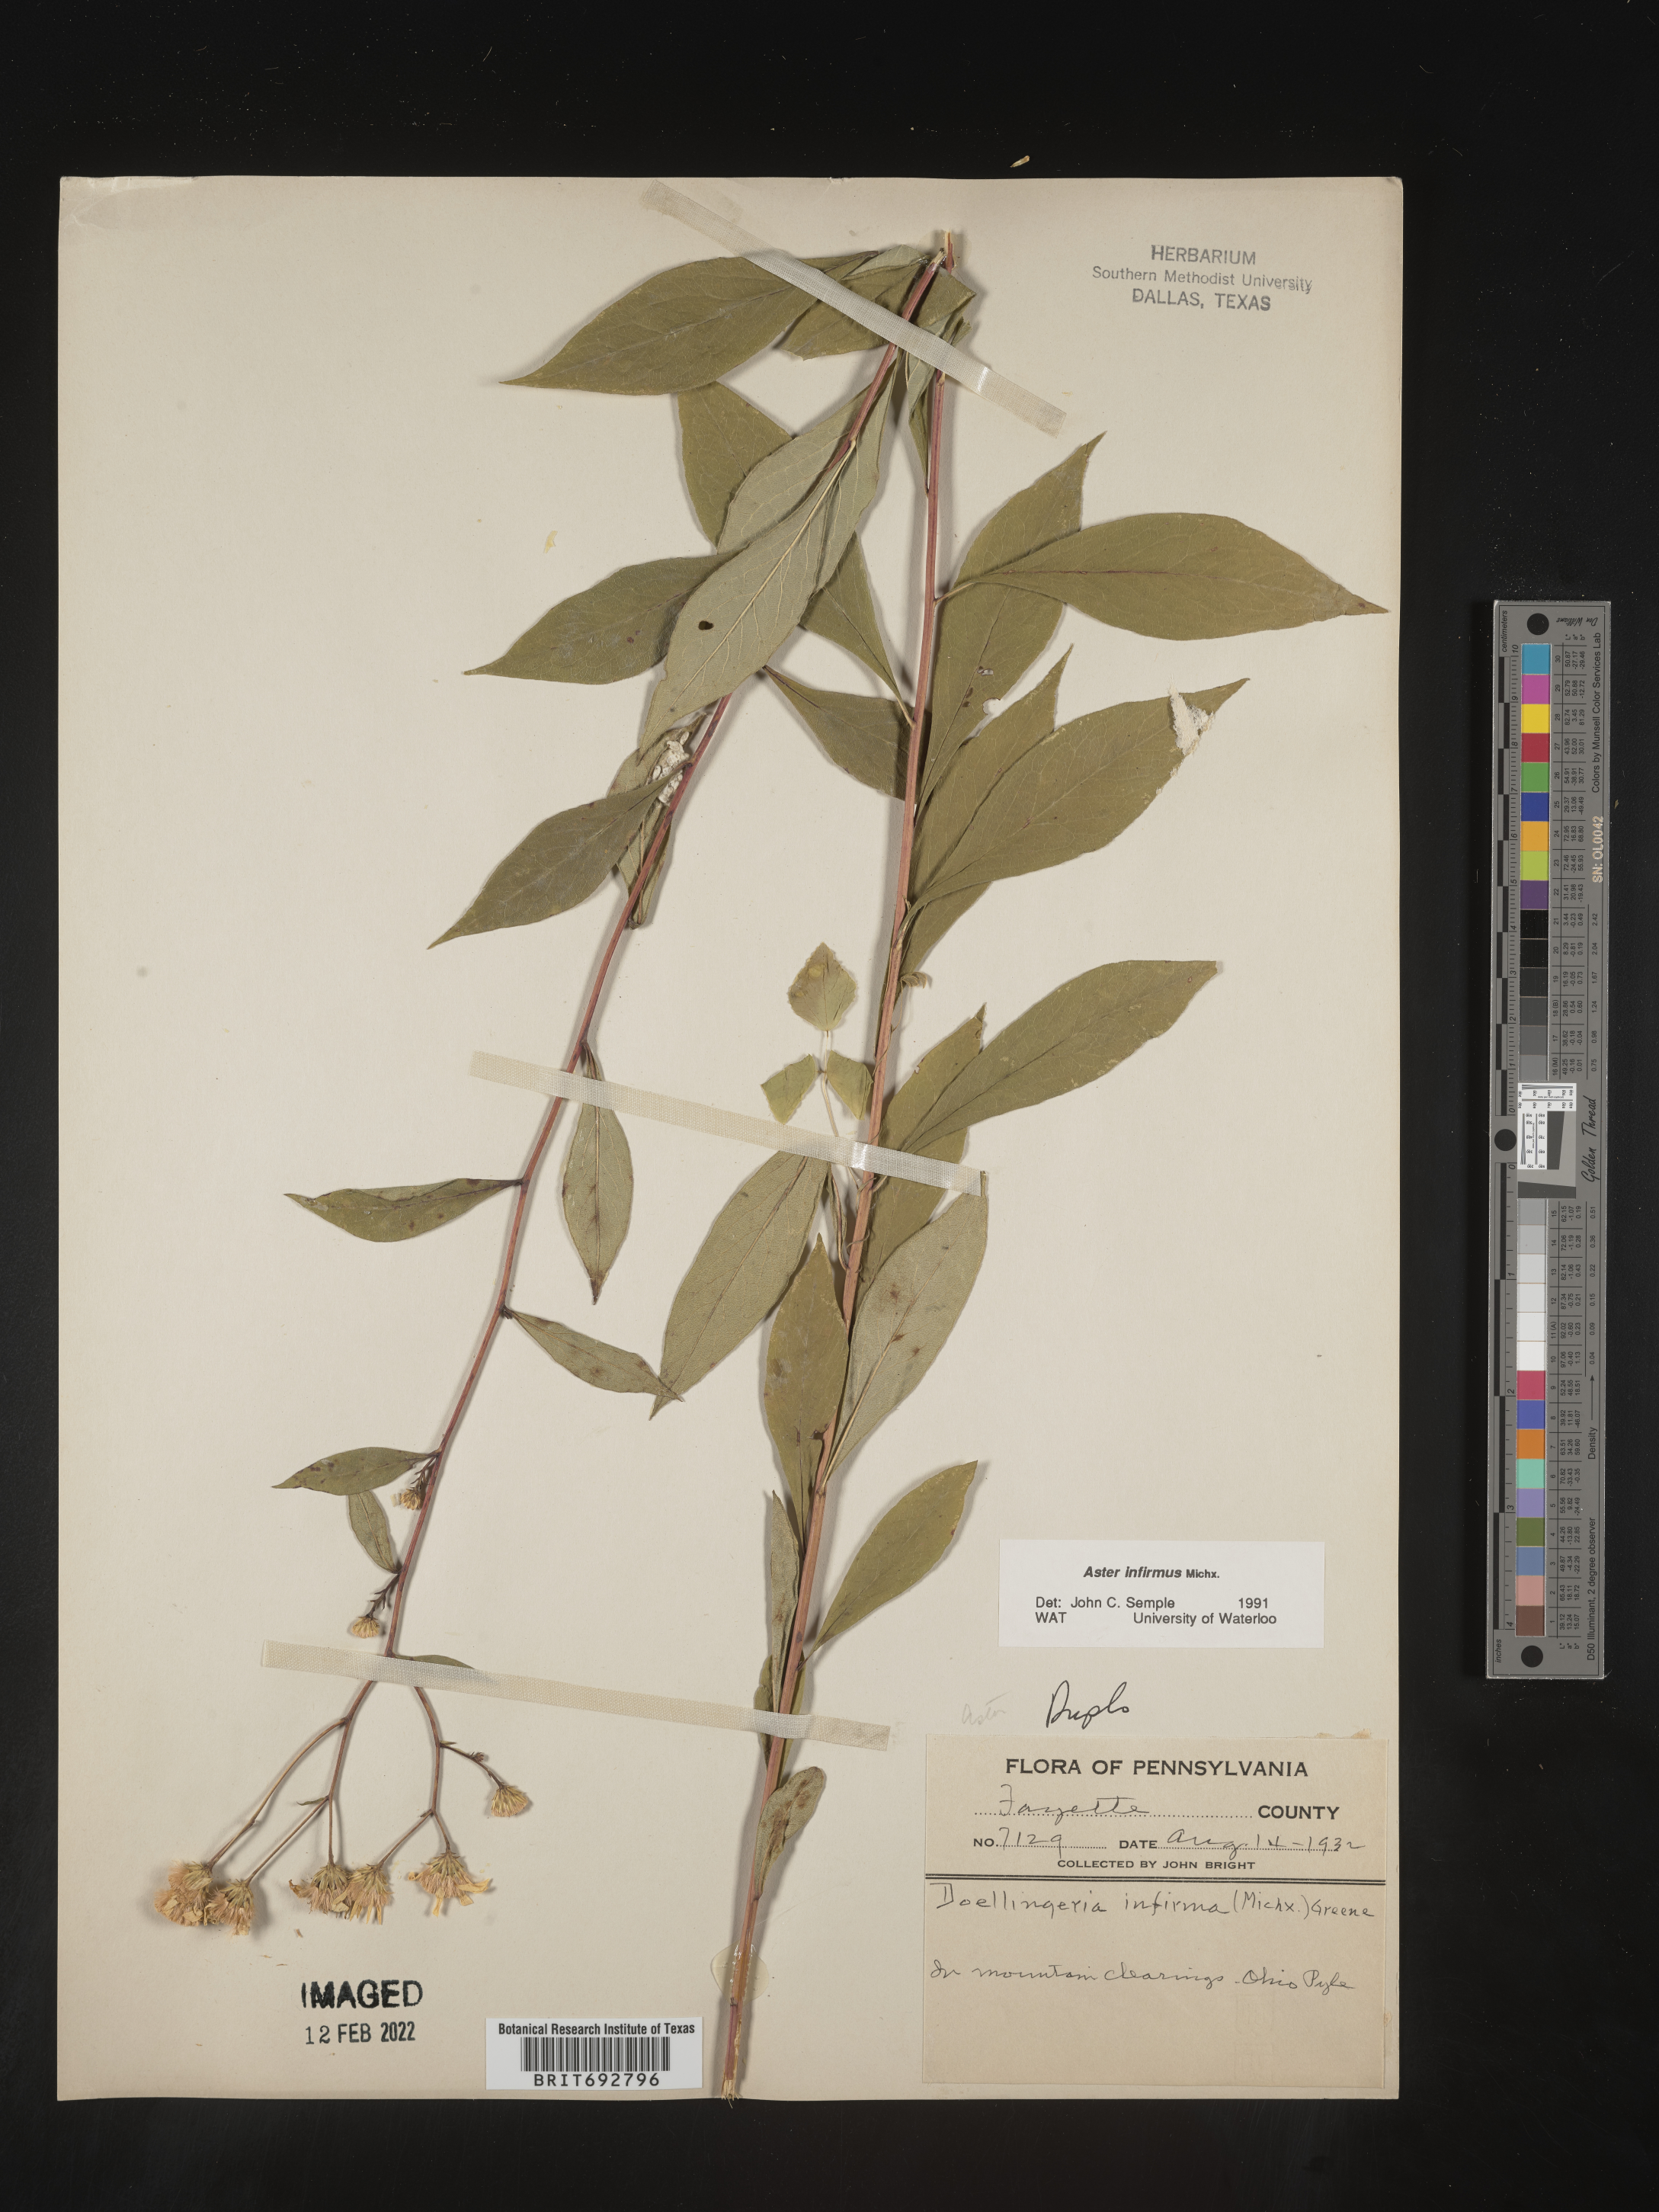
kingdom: Plantae
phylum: Tracheophyta
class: Magnoliopsida
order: Asterales
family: Asteraceae
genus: Doellingeria
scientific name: Doellingeria infirma
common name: Appalachian flat-top aster
